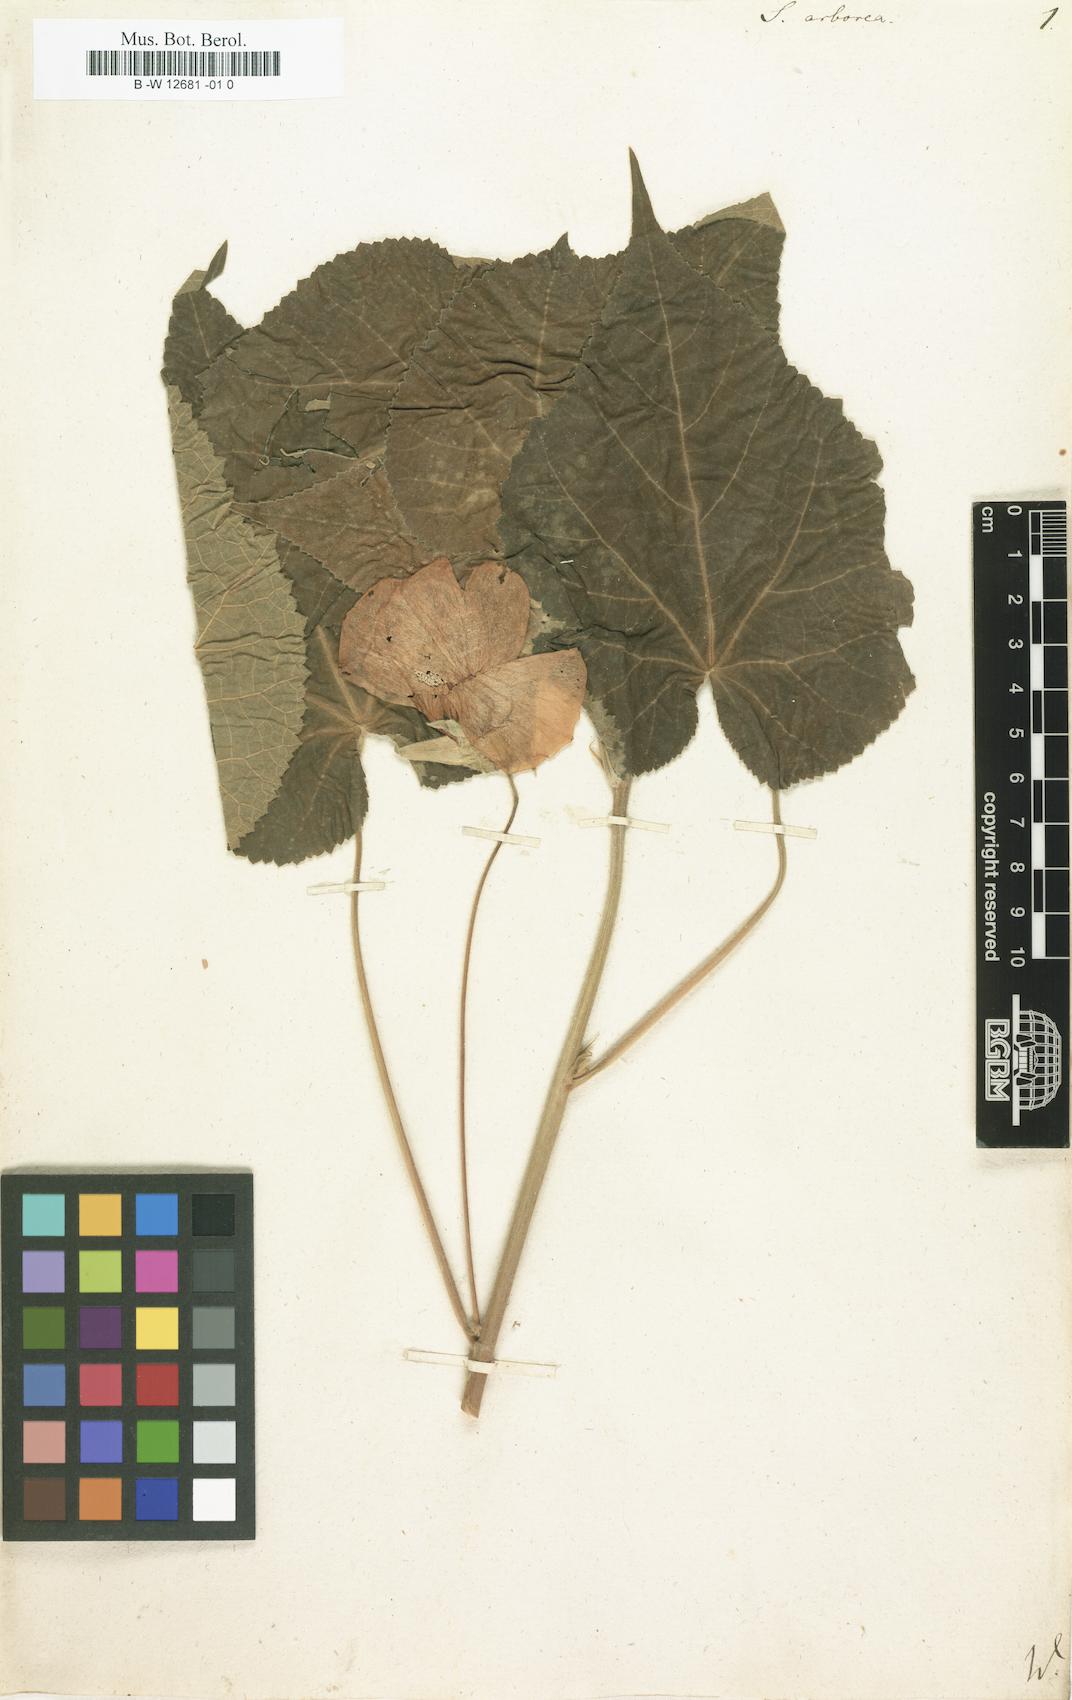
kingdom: Plantae
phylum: Tracheophyta
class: Magnoliopsida
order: Malvales
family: Malvaceae
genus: Callianthe
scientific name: Callianthe peruviana
